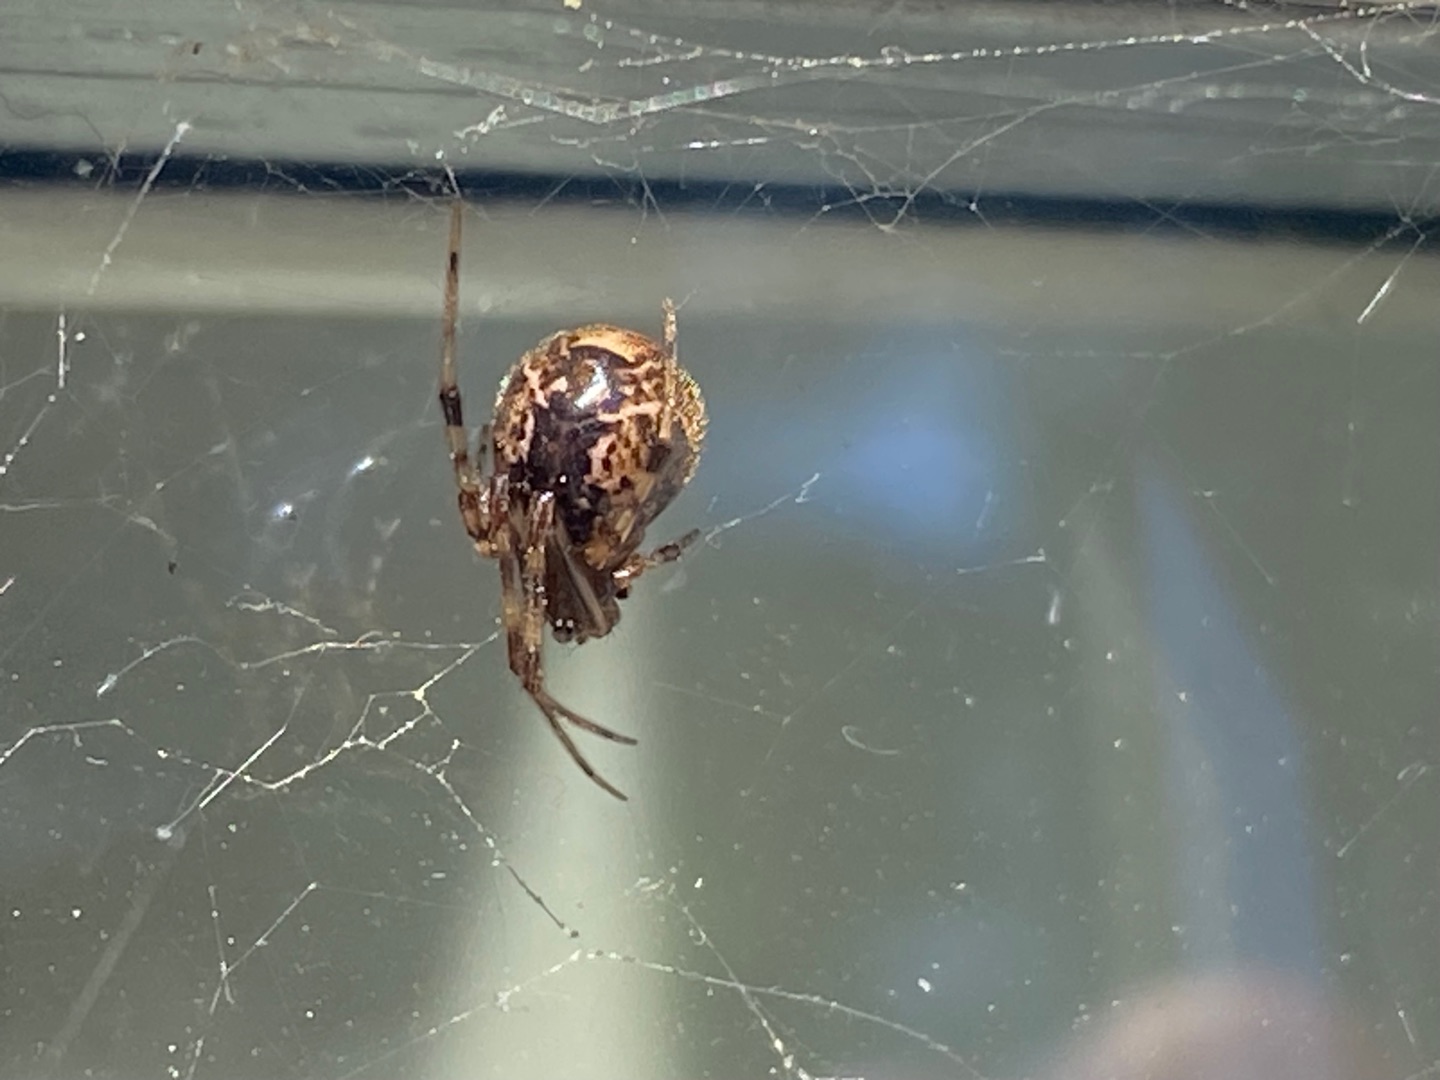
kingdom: Animalia
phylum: Arthropoda
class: Arachnida
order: Araneae
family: Theridiidae
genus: Parasteatoda
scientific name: Parasteatoda tepidariorum
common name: Væksthusspinder
